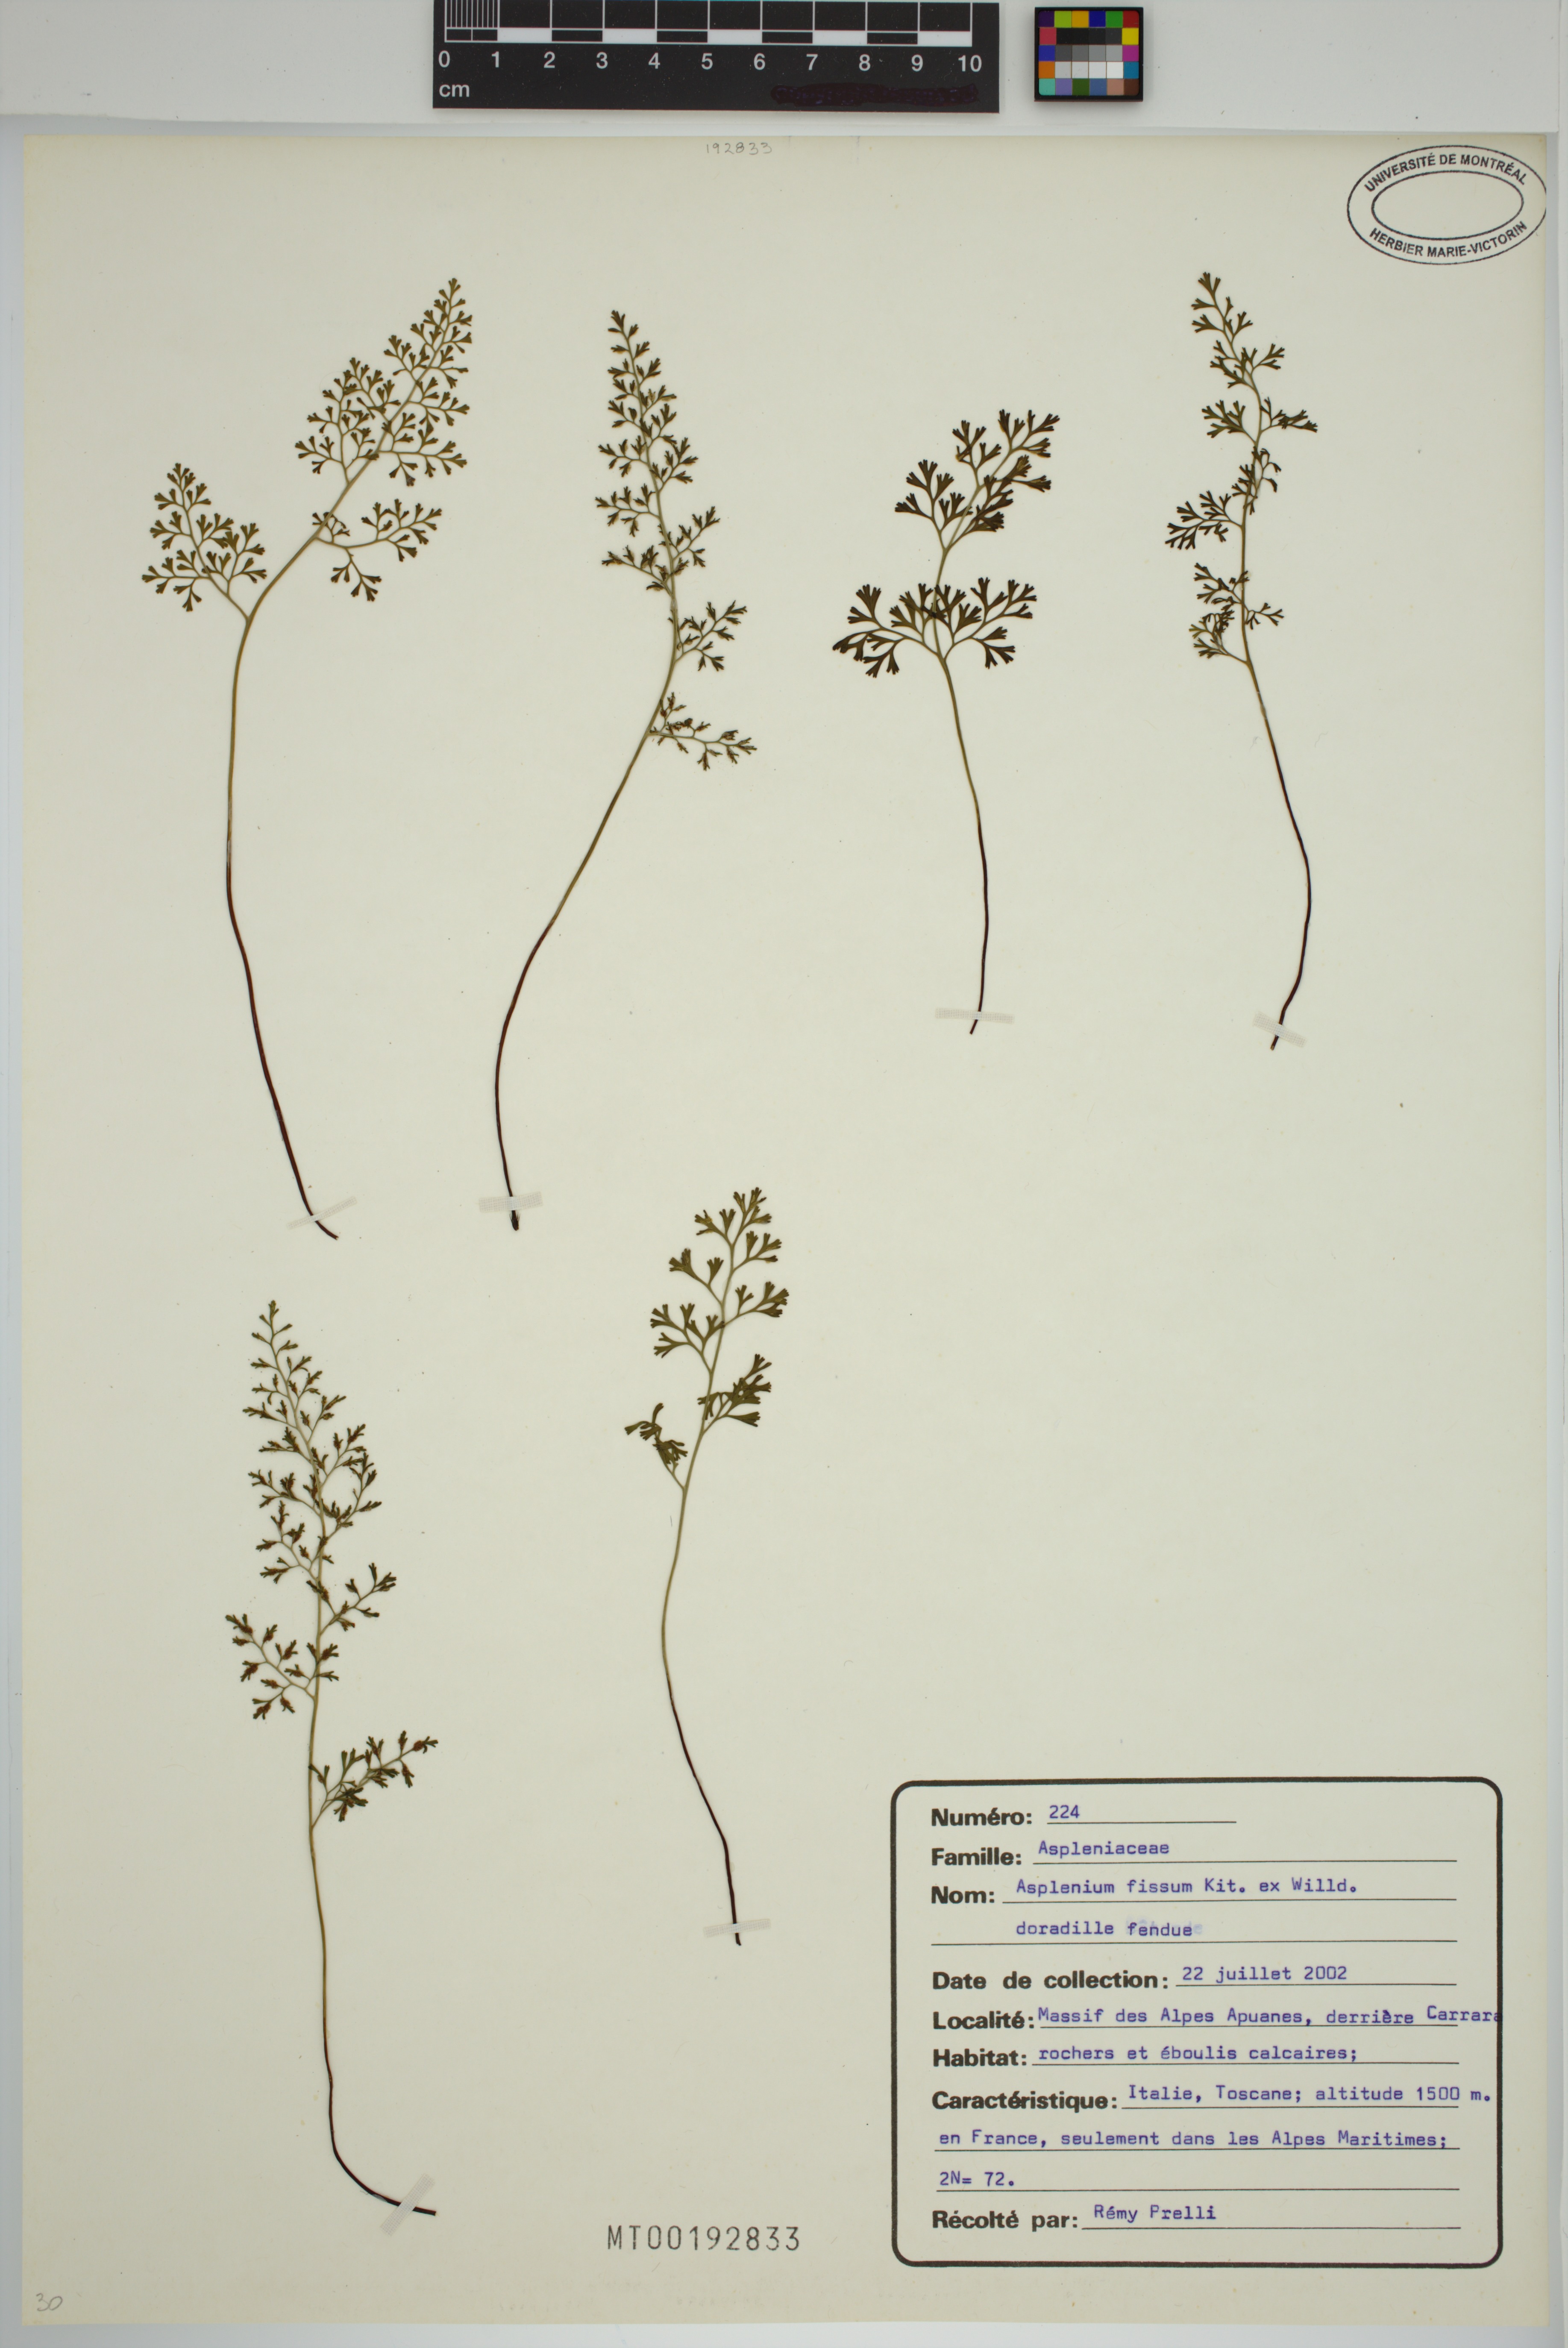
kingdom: Plantae
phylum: Tracheophyta
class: Polypodiopsida
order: Polypodiales
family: Aspleniaceae
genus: Asplenium
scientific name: Asplenium fissum
